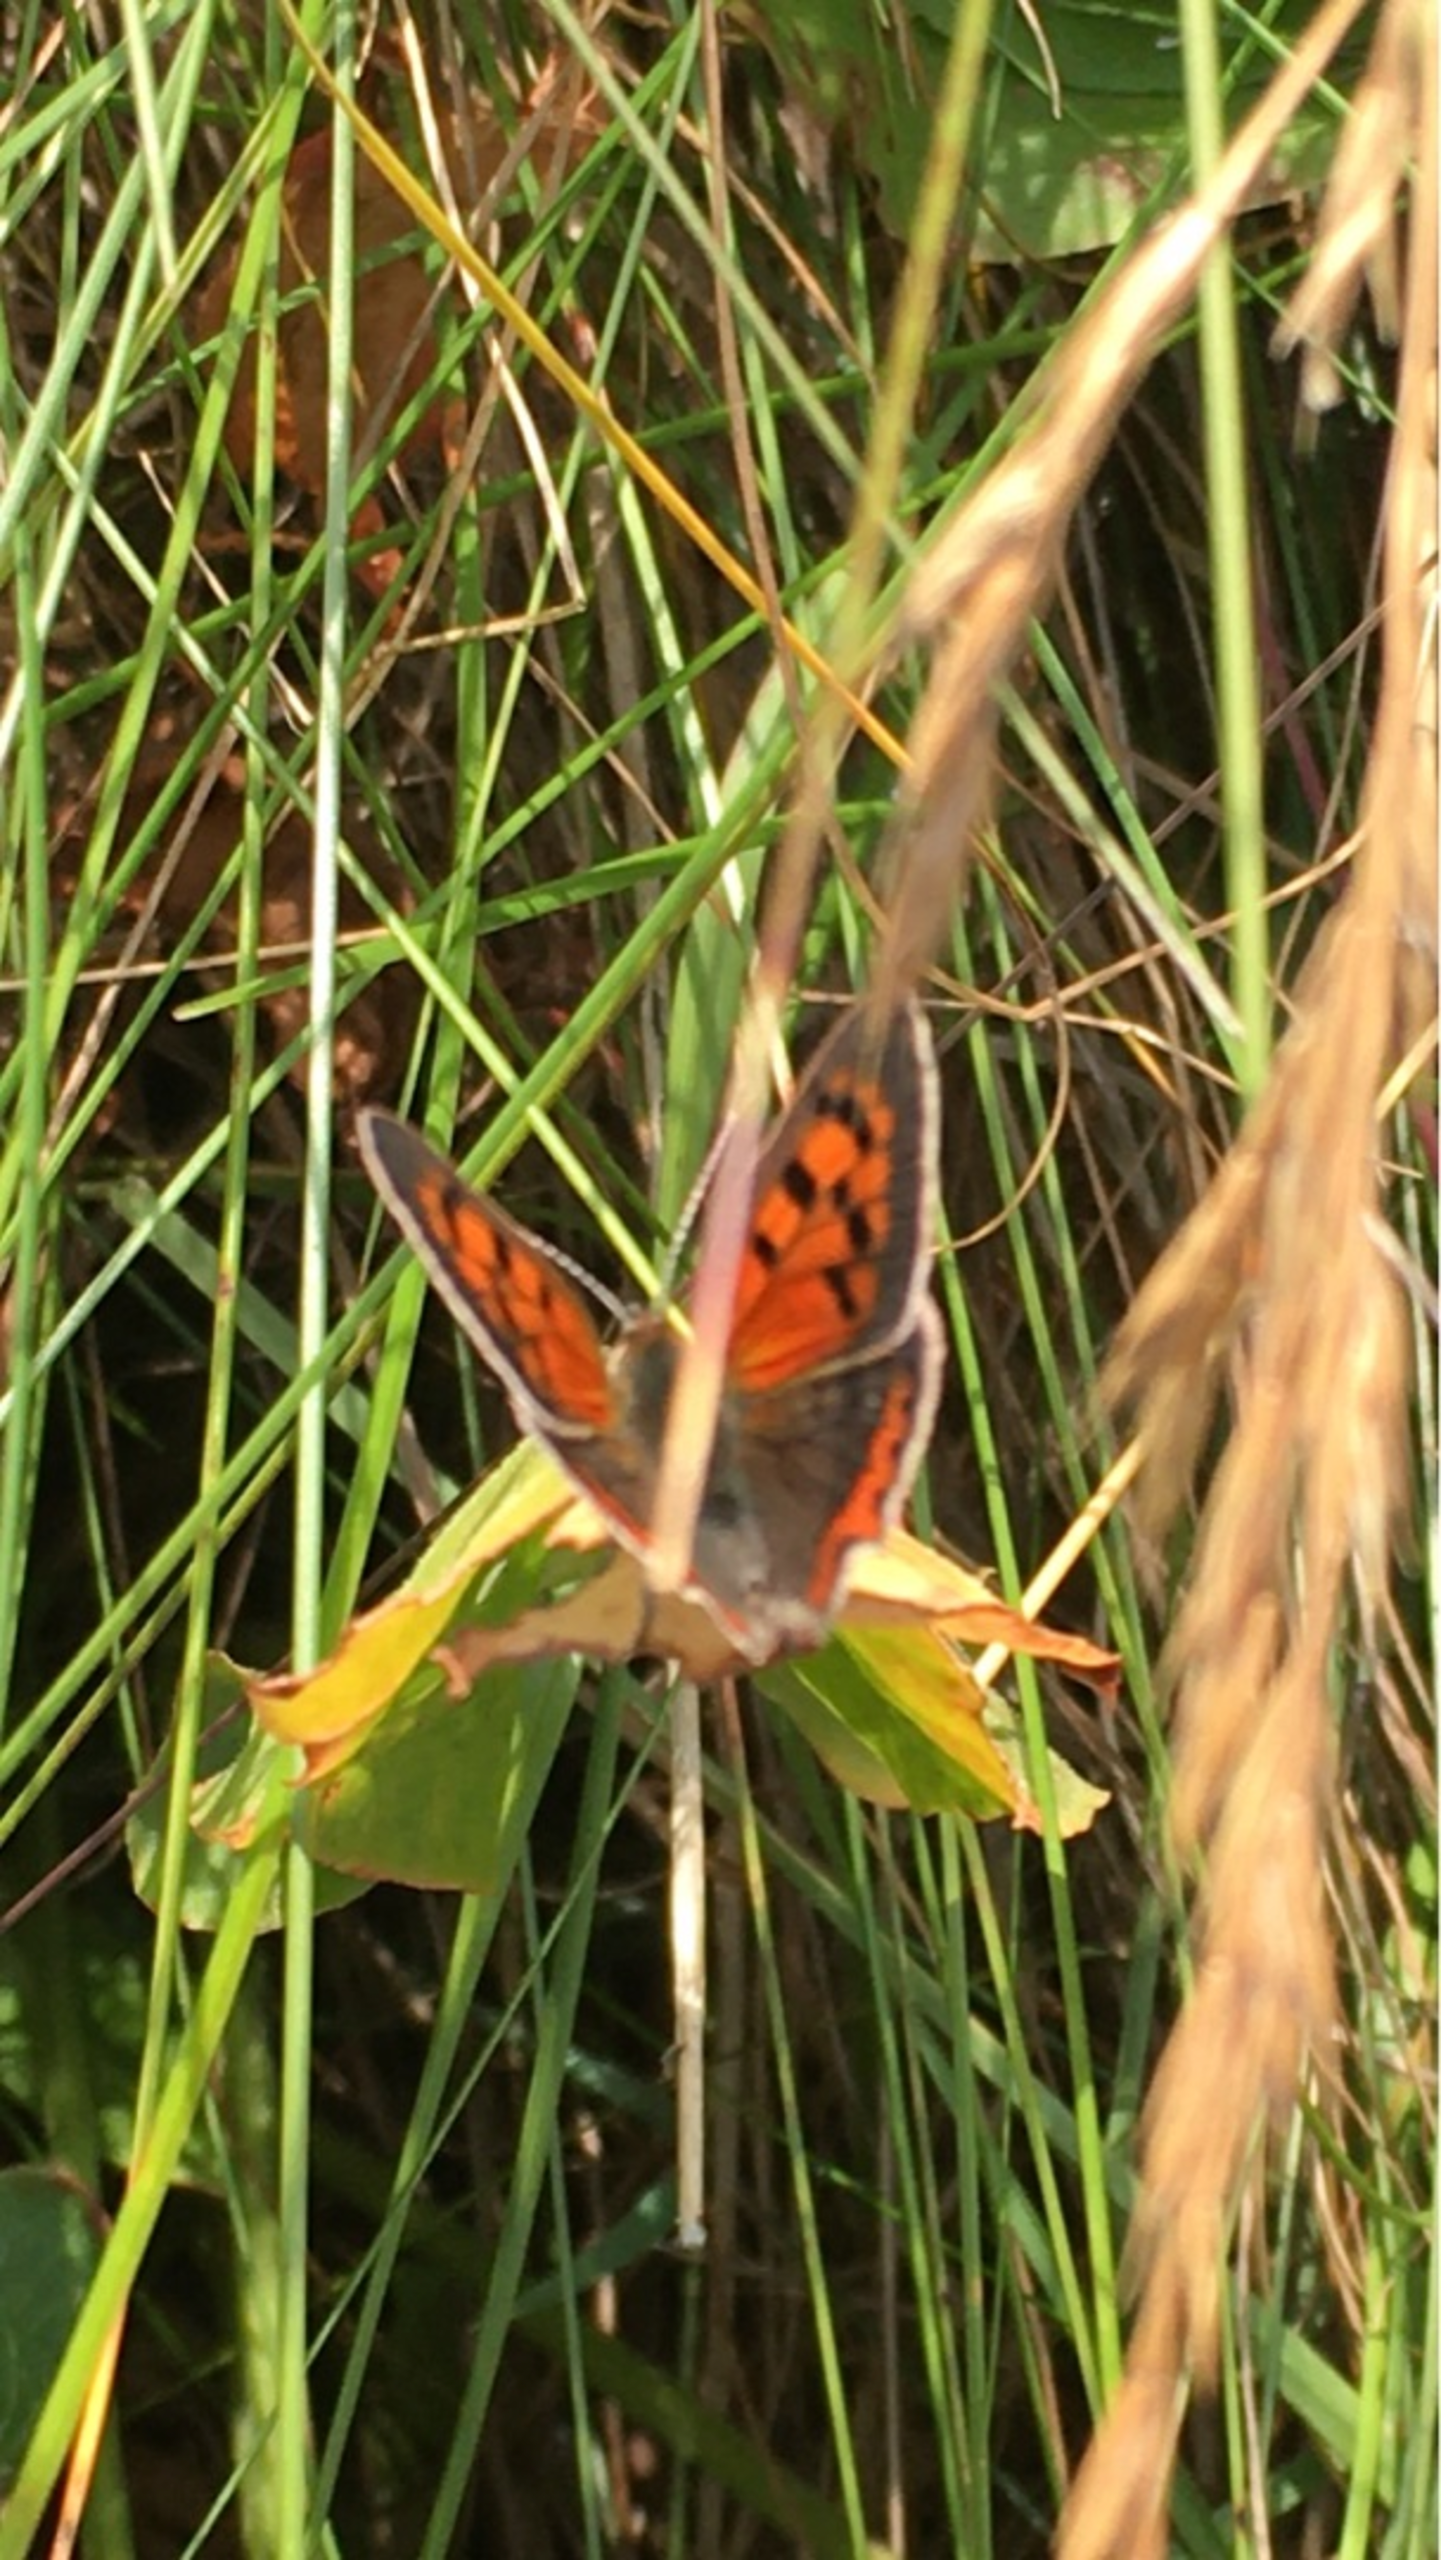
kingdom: Animalia
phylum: Arthropoda
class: Insecta
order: Lepidoptera
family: Lycaenidae
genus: Lycaena
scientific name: Lycaena phlaeas
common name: Lille ildfugl
